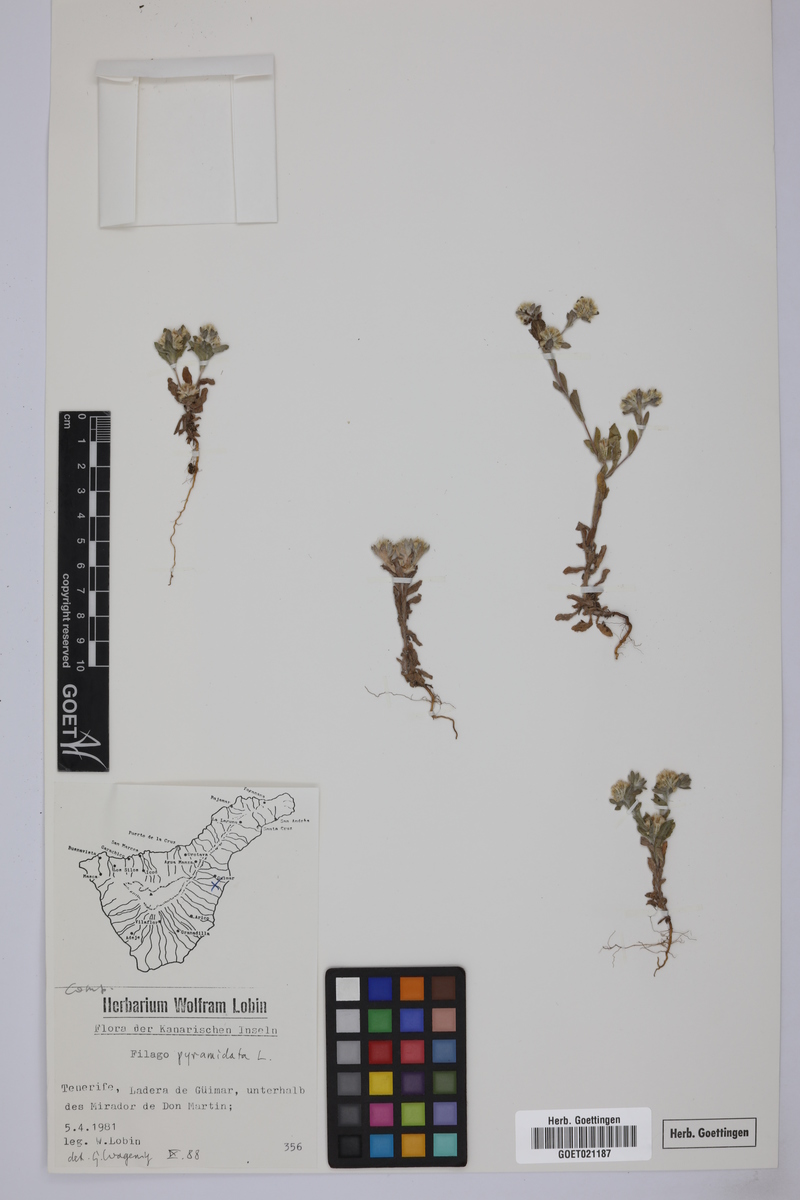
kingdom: Plantae
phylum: Tracheophyta
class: Magnoliopsida
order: Asterales
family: Asteraceae
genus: Filago
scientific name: Filago pyramidata
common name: Broad-leaved cudweed
